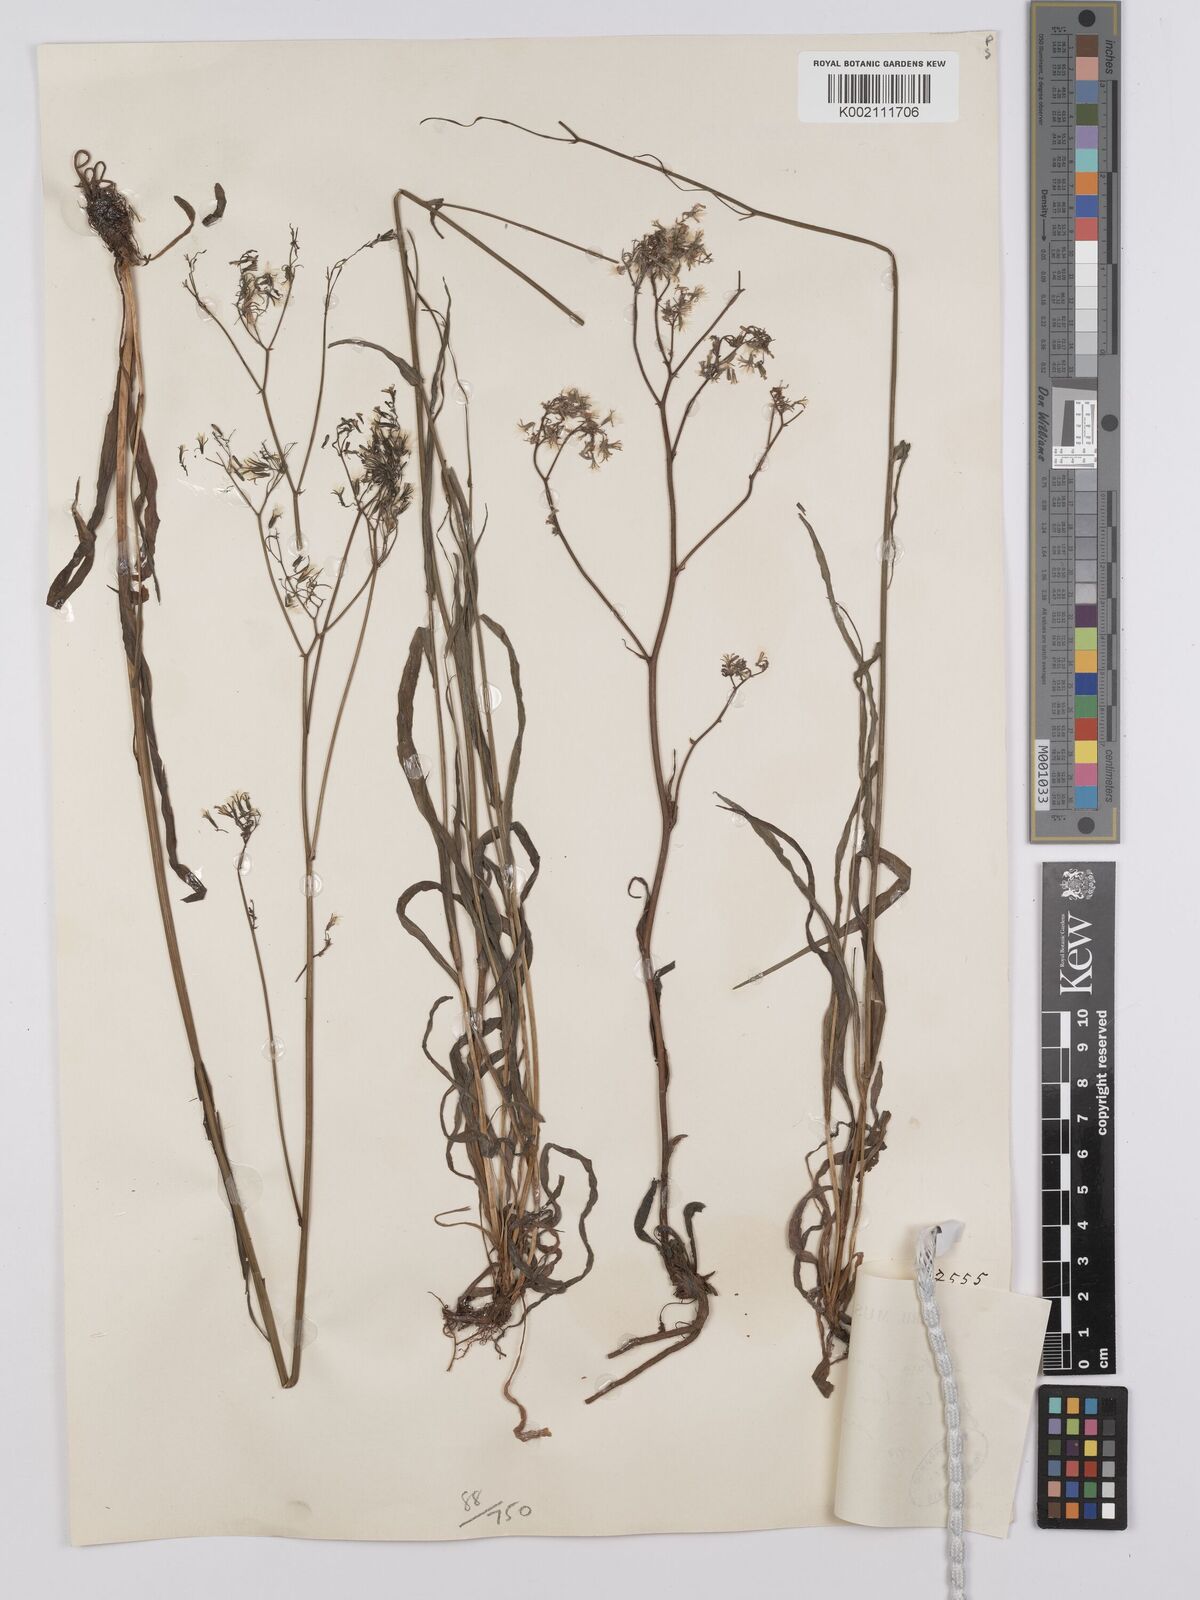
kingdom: Plantae
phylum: Tracheophyta
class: Magnoliopsida
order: Asterales
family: Asteraceae
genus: Ixeridium
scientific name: Ixeridium
